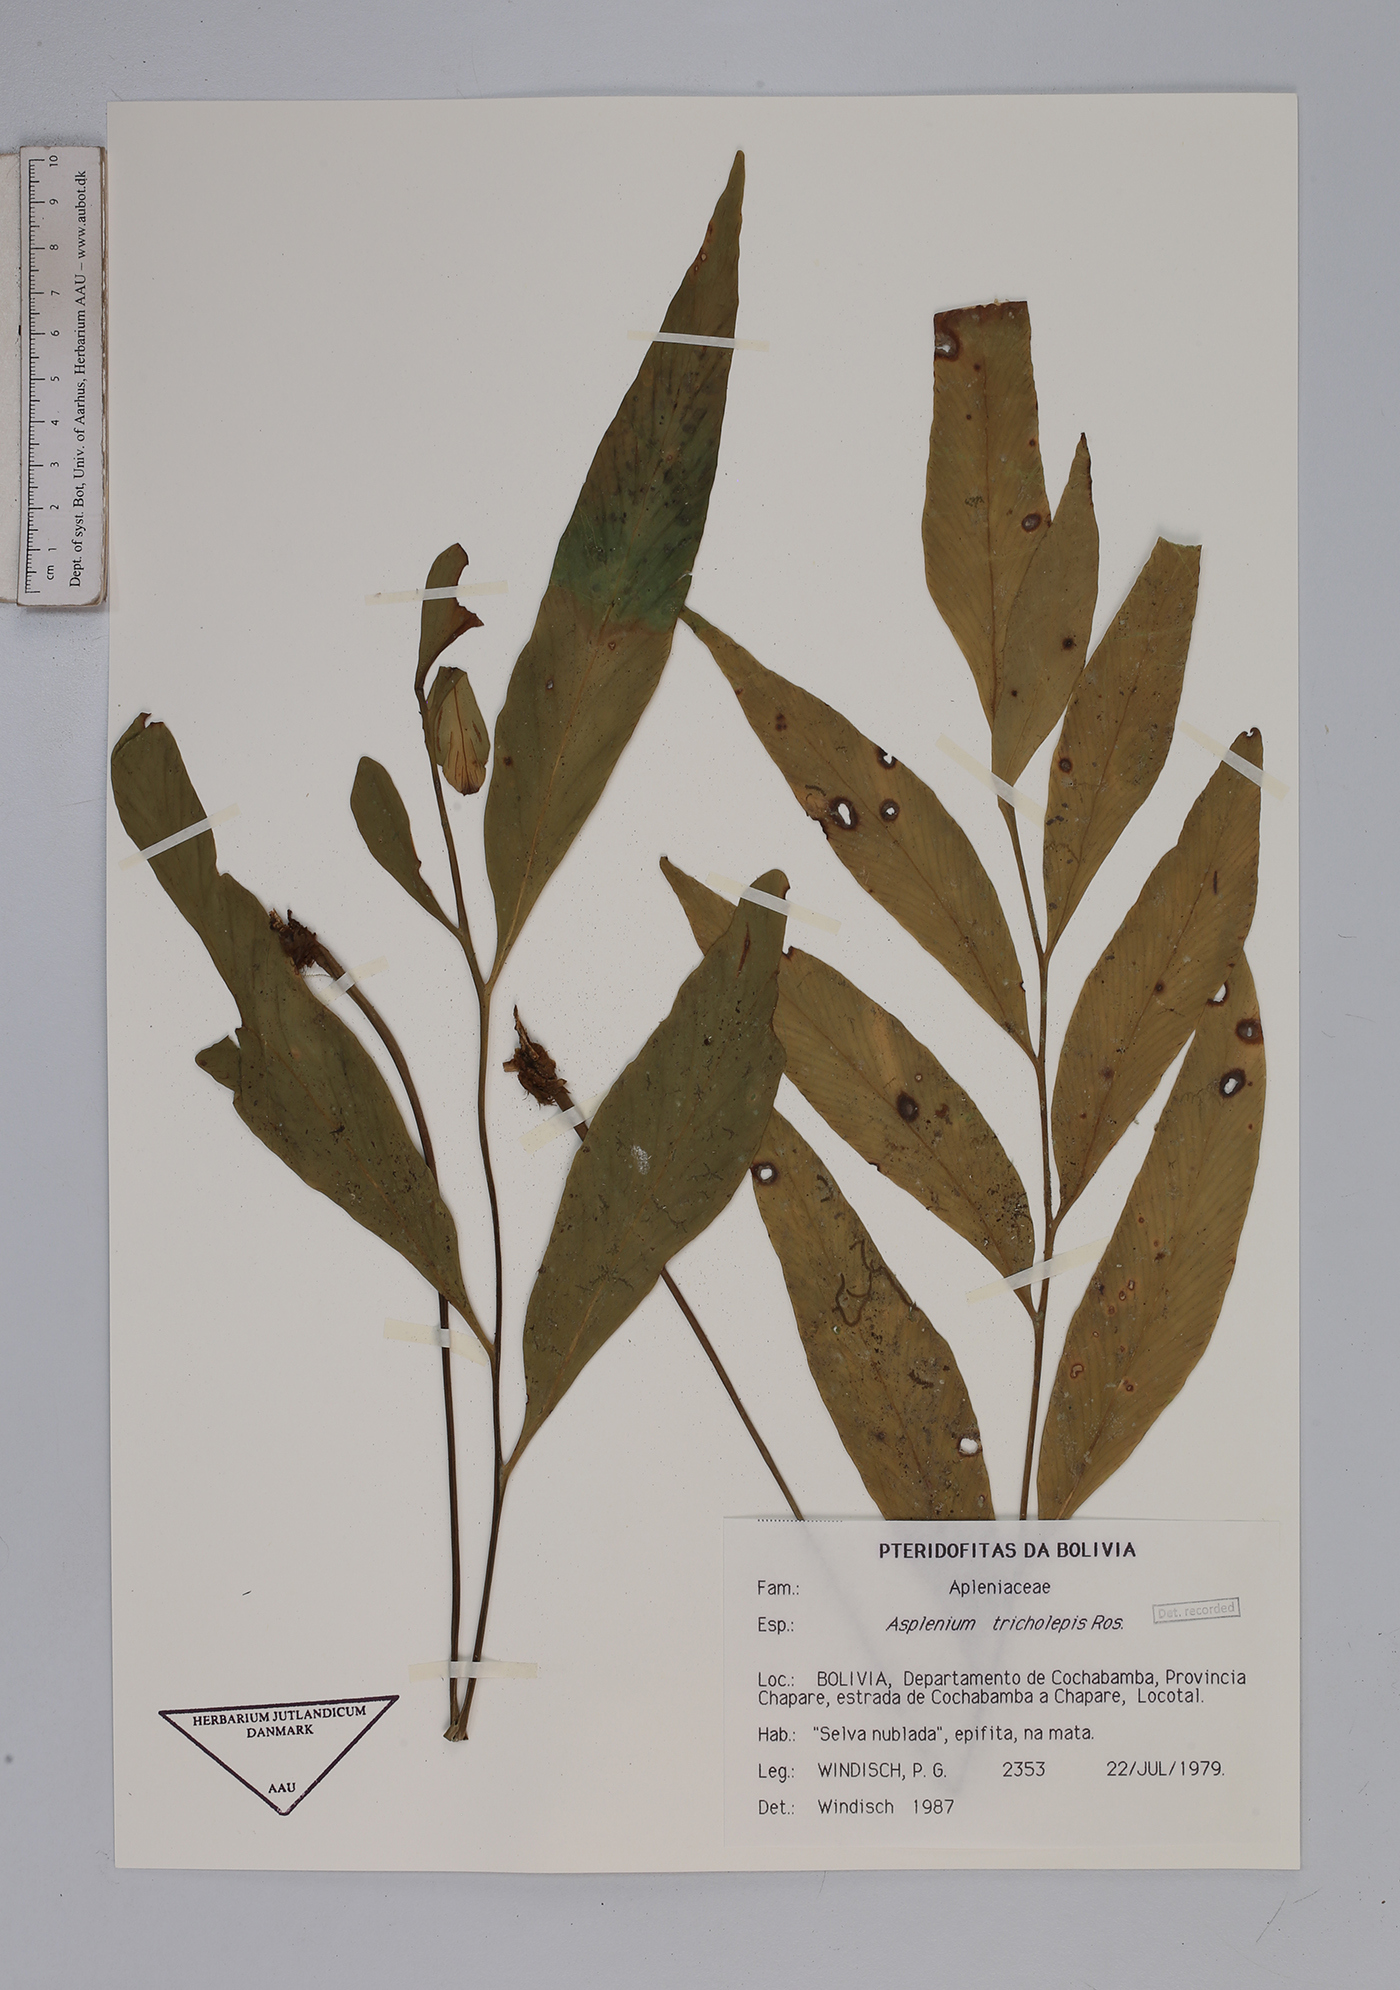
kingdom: Plantae
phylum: Tracheophyta
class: Polypodiopsida
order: Polypodiales
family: Aspleniaceae
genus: Asplenium
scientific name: Asplenium tricholepis
